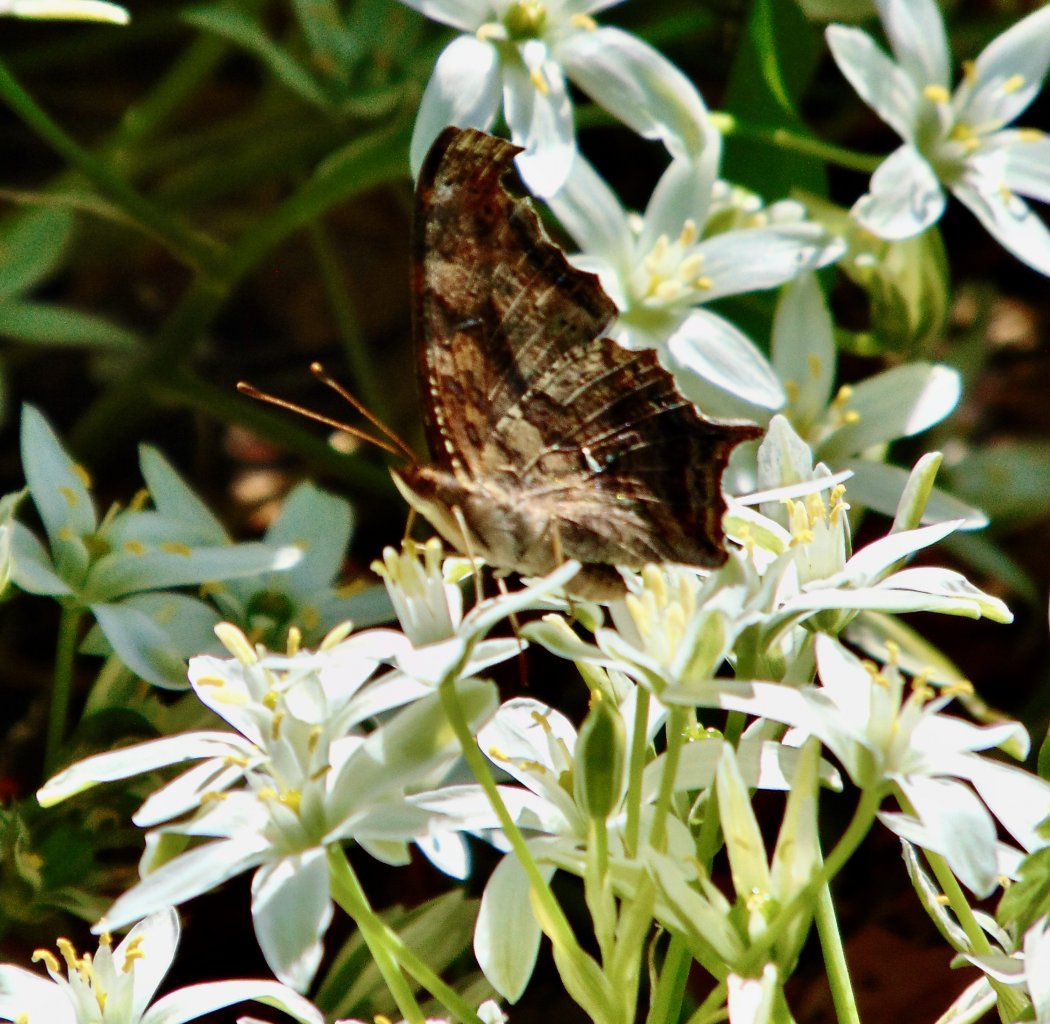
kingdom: Animalia
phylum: Arthropoda
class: Insecta
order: Lepidoptera
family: Nymphalidae
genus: Polygonia
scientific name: Polygonia interrogationis
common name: Question Mark
